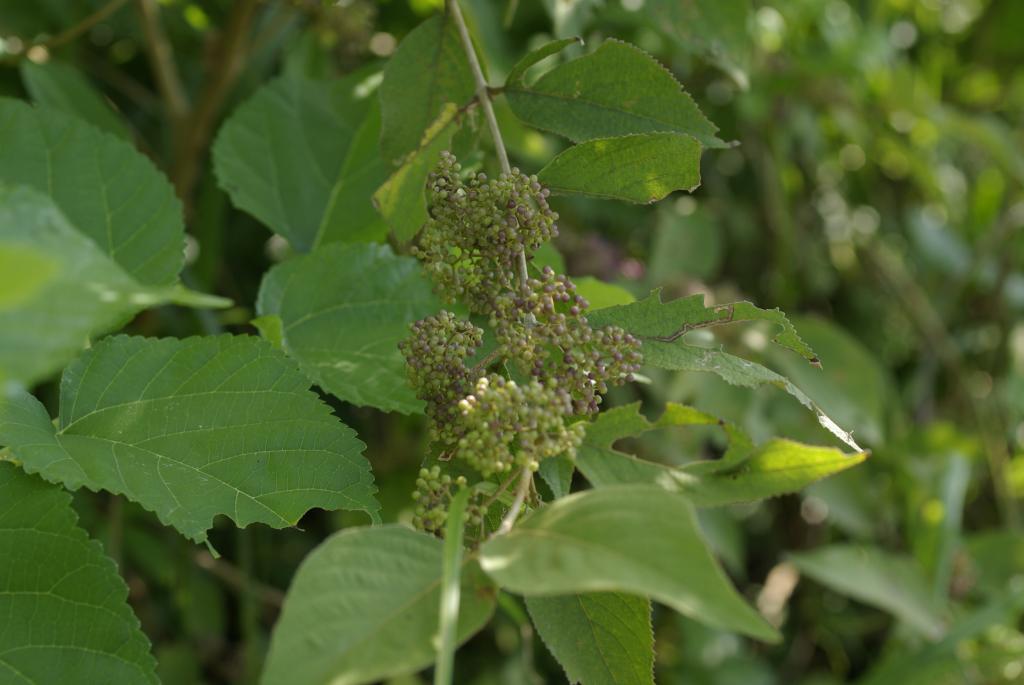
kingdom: Plantae
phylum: Tracheophyta
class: Magnoliopsida
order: Lamiales
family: Lamiaceae
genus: Callicarpa
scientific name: Callicarpa pedunculata
